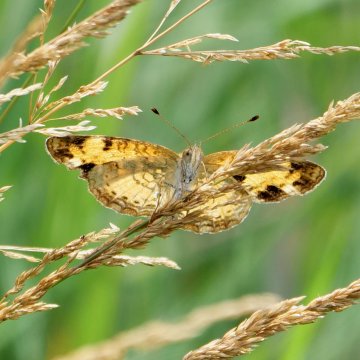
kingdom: Animalia
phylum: Arthropoda
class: Insecta
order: Lepidoptera
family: Nymphalidae
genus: Phyciodes
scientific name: Phyciodes
